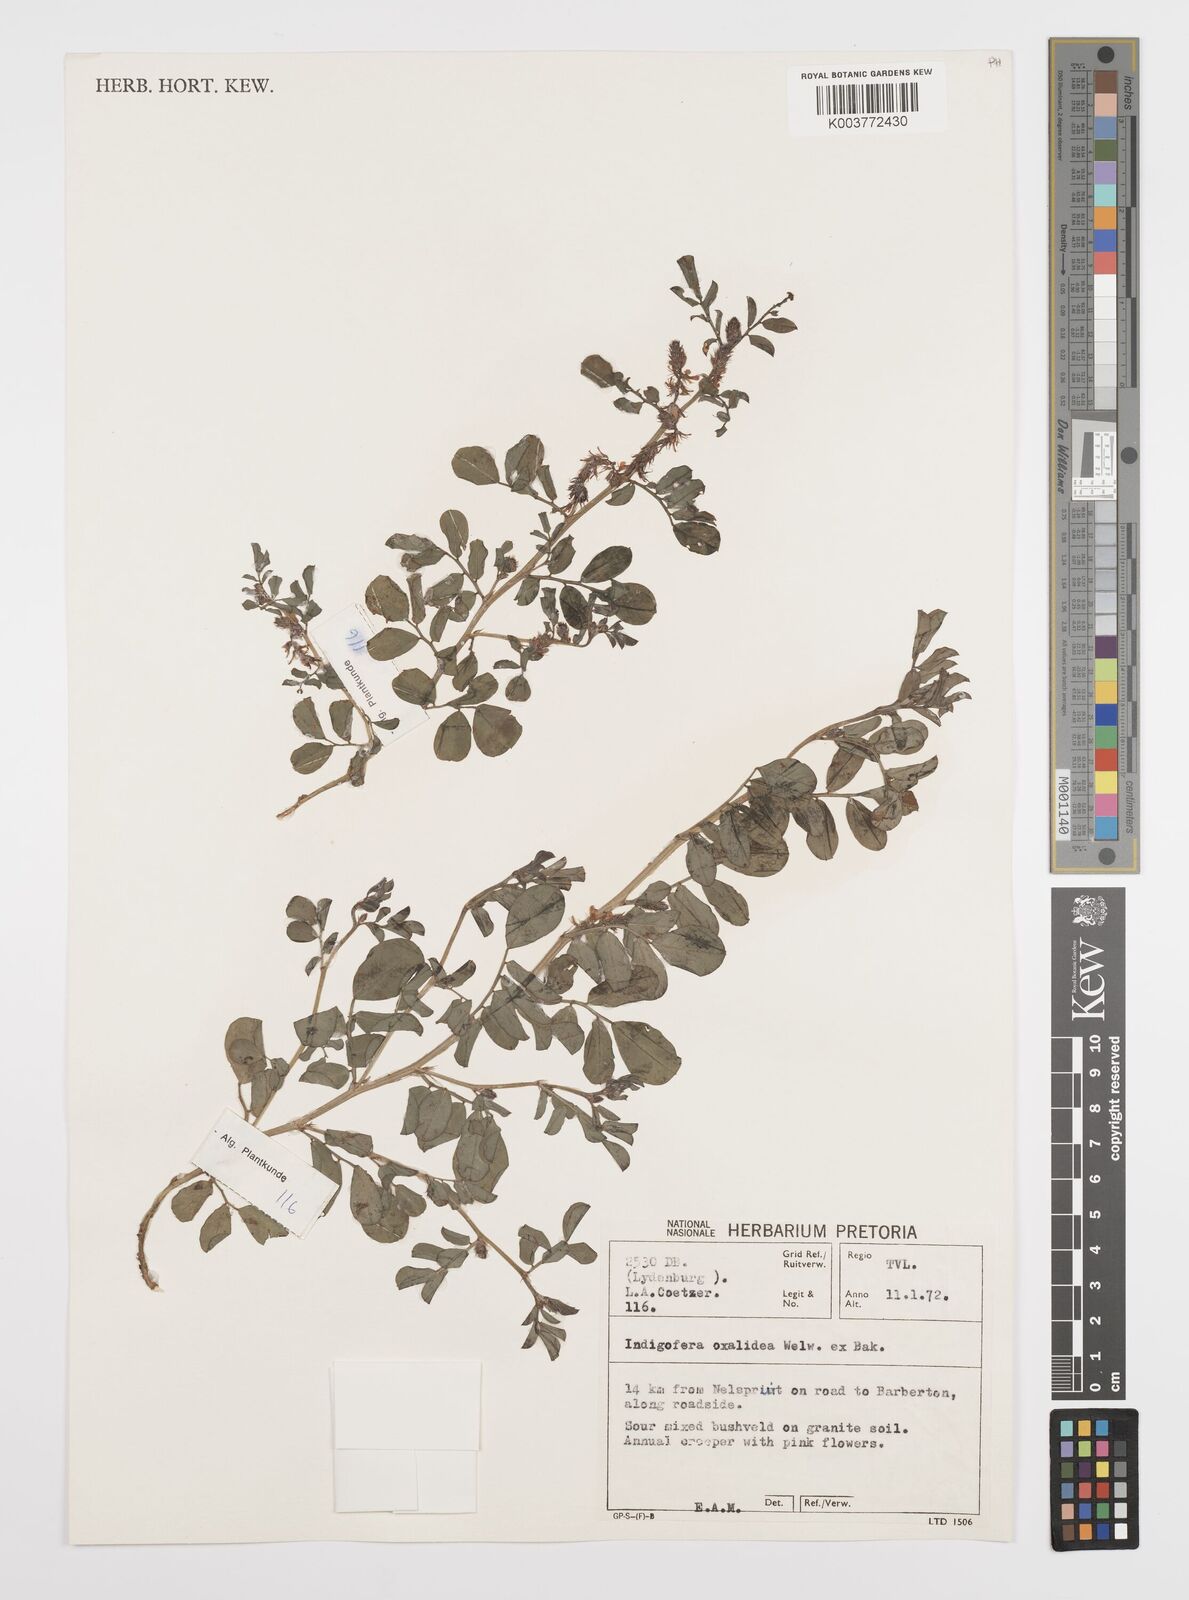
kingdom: Plantae
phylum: Tracheophyta
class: Magnoliopsida
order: Fabales
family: Fabaceae
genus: Indigofera
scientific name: Indigofera oxalidea
